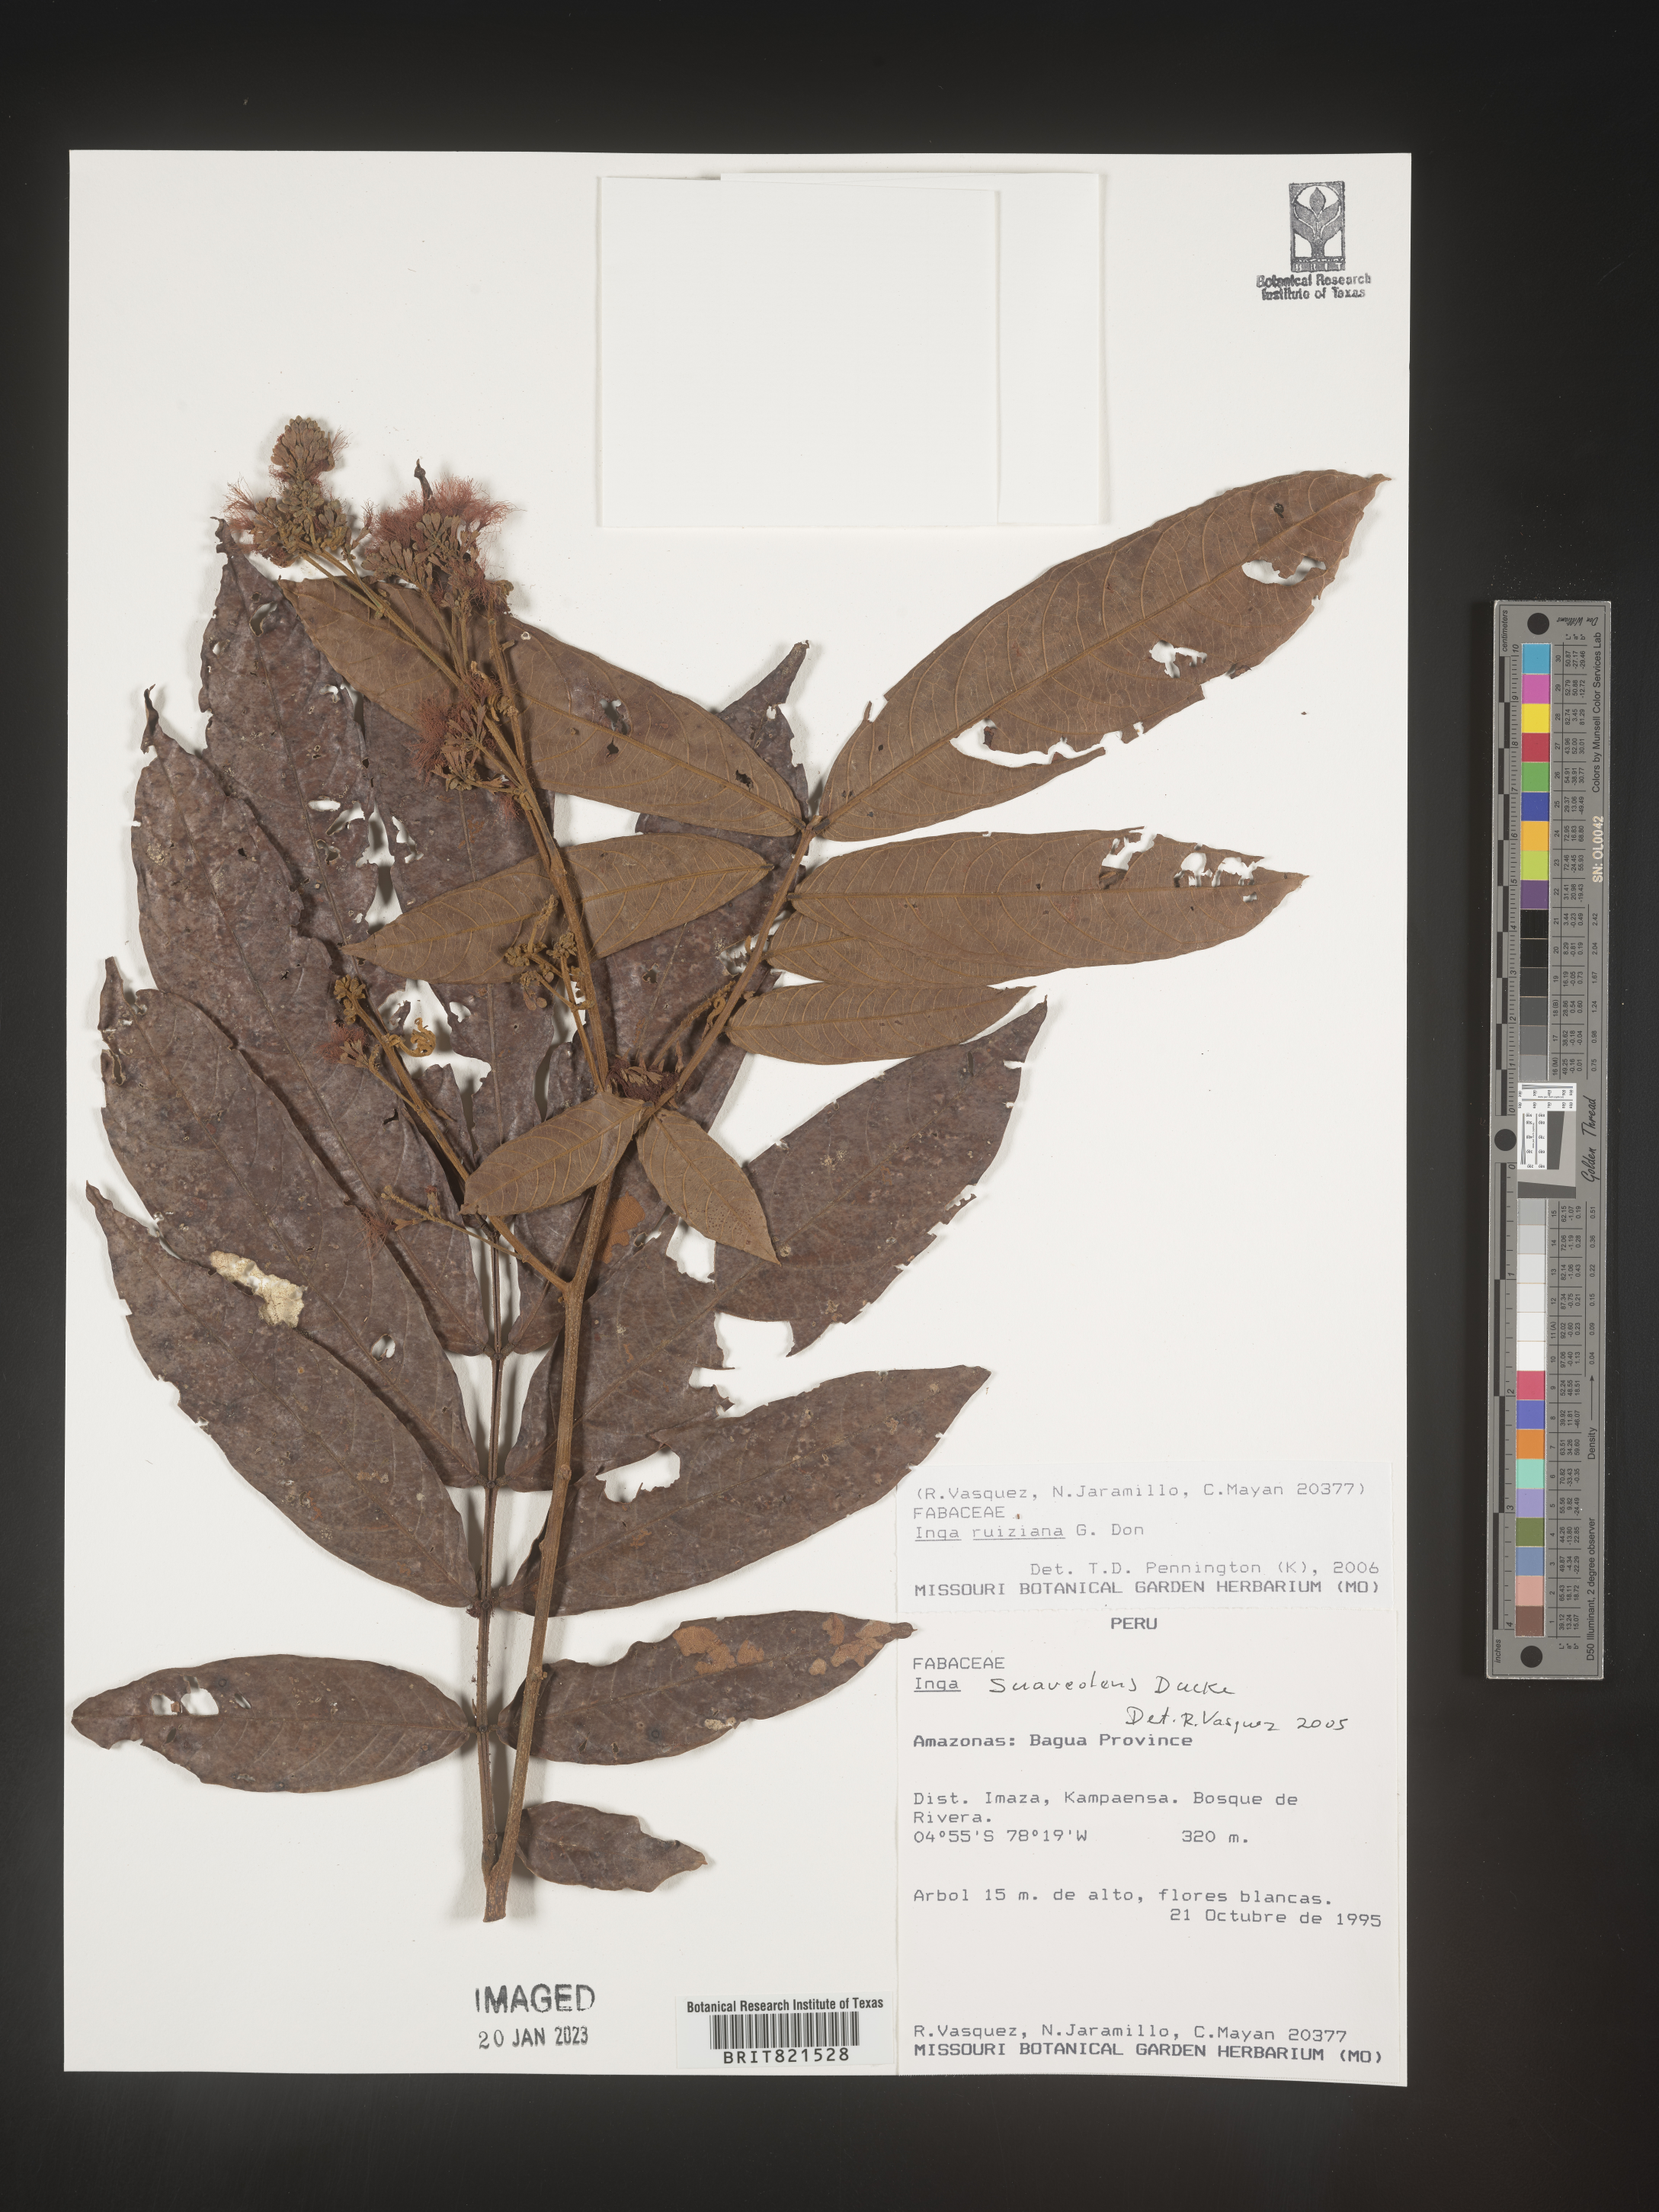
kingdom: Plantae
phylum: Tracheophyta
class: Magnoliopsida
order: Fabales
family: Fabaceae
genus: Inga
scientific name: Inga
